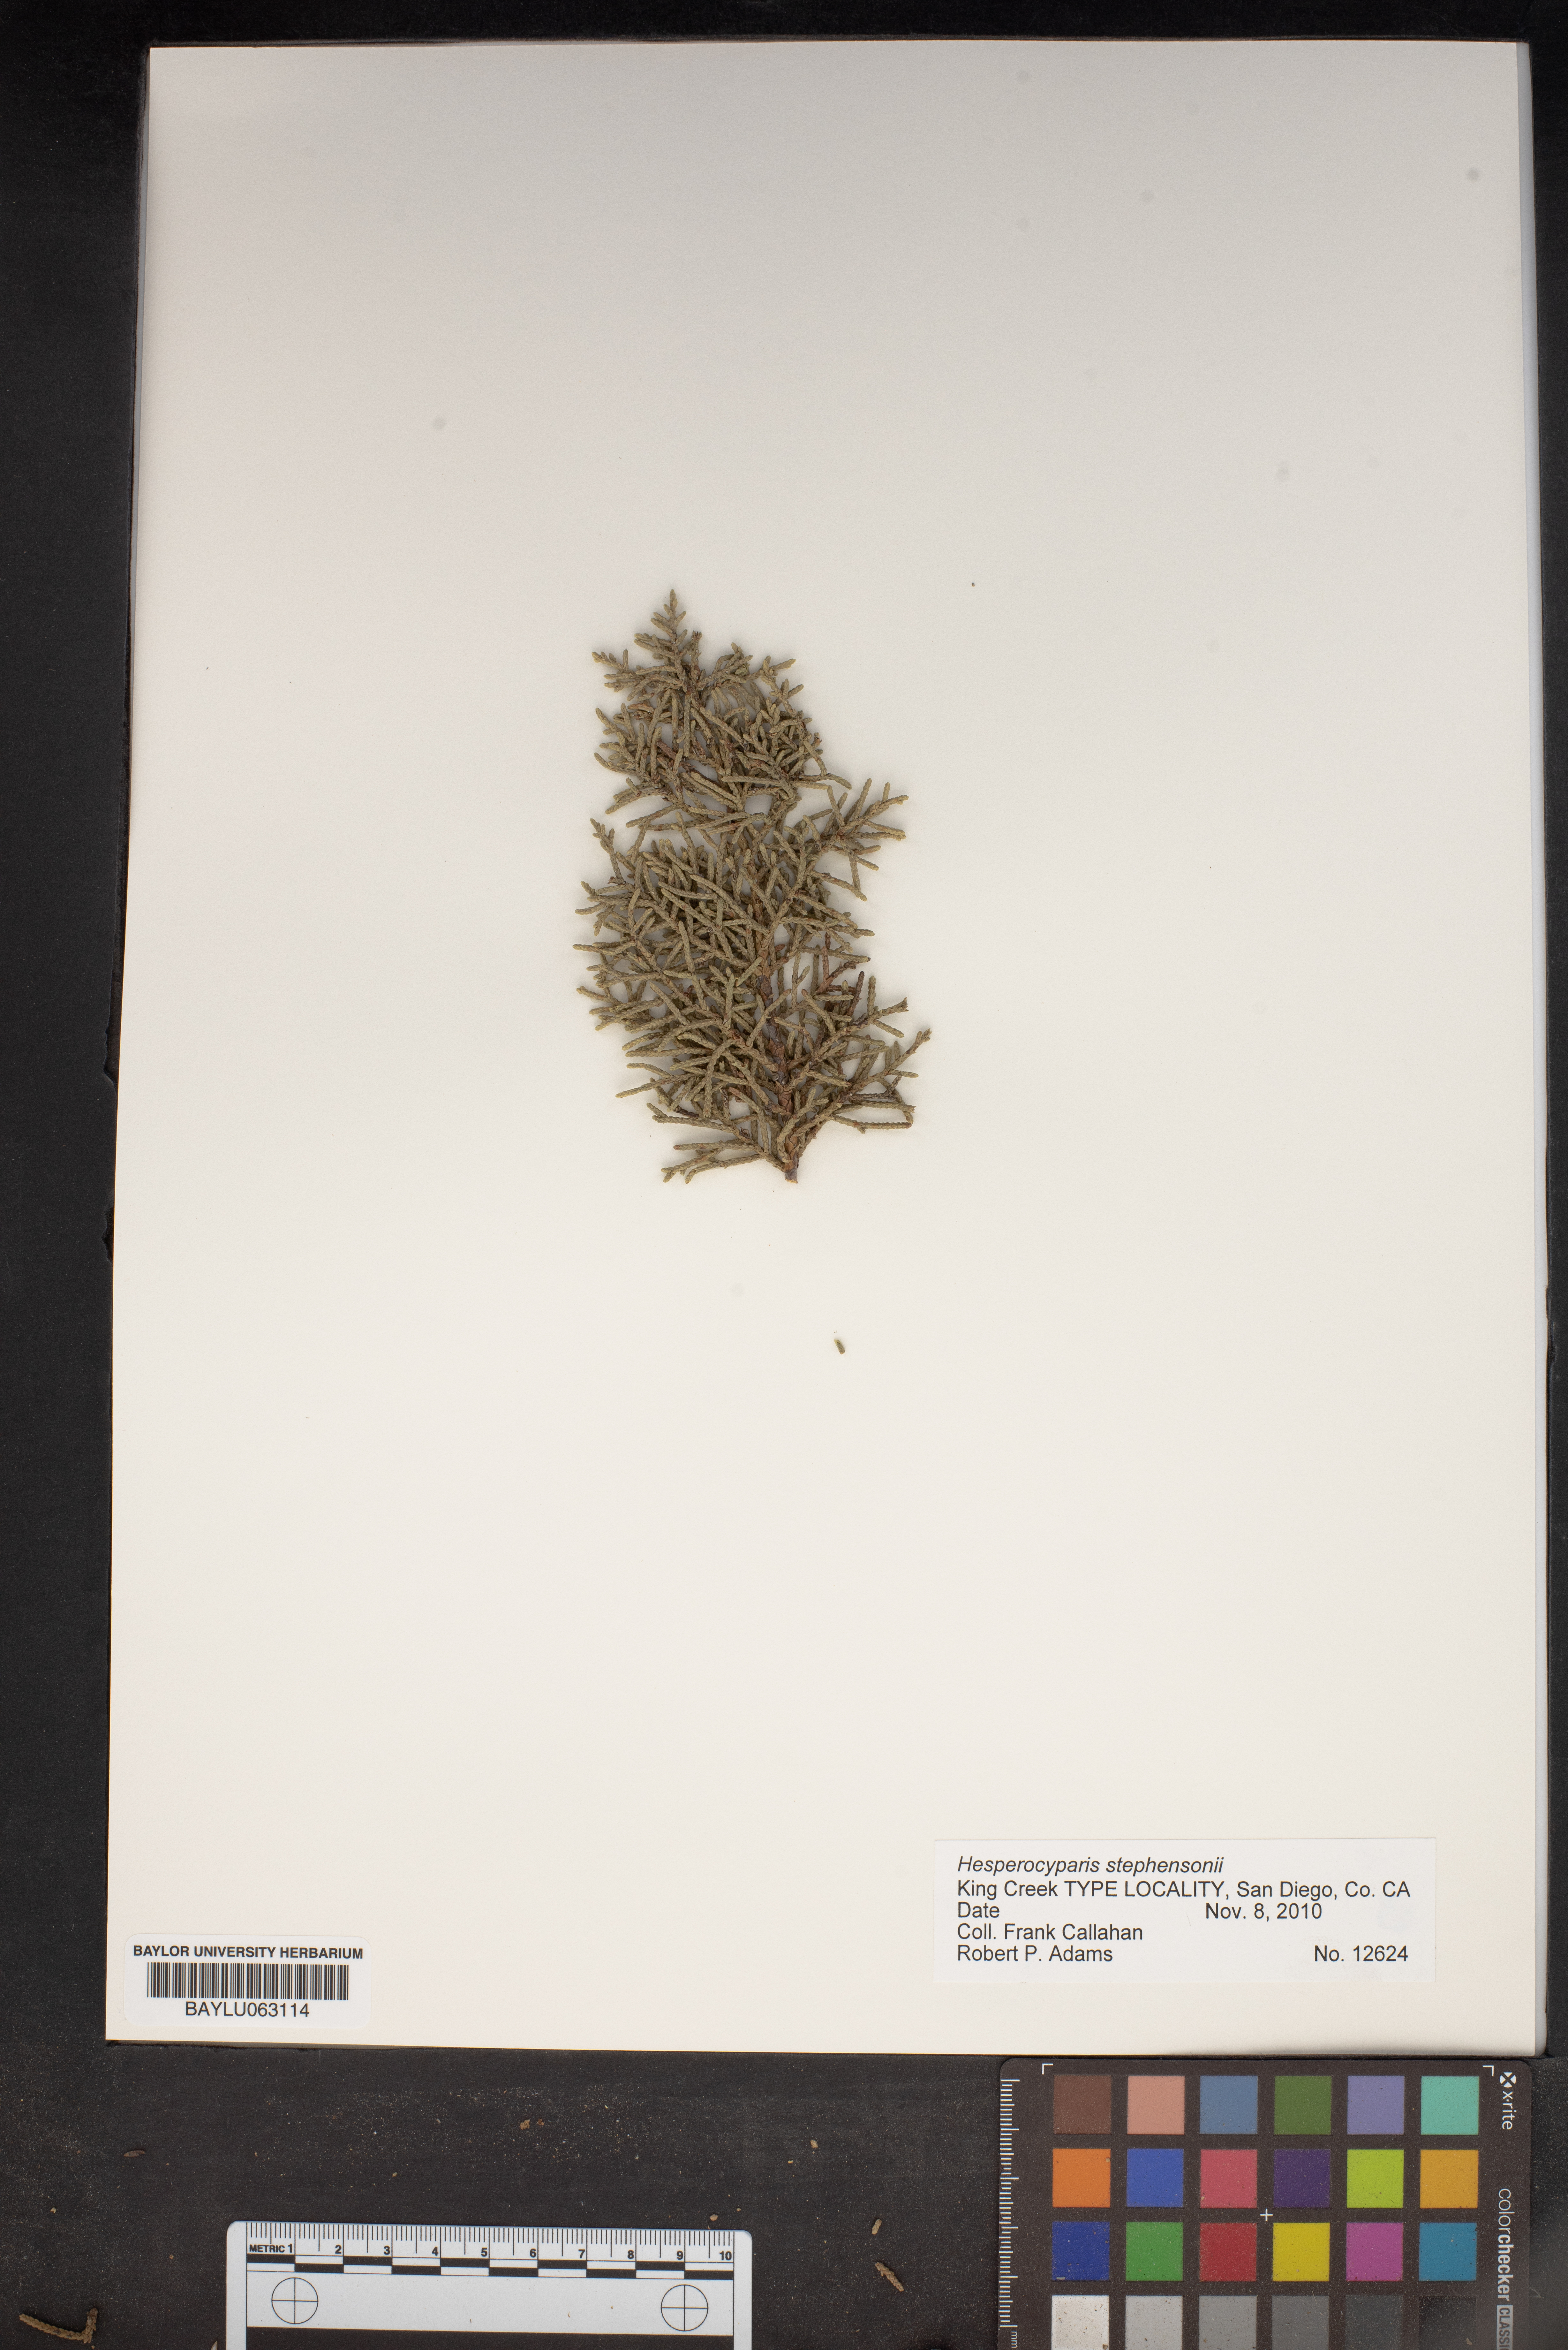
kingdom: Plantae
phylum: Tracheophyta
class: Pinopsida
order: Pinales
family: Cupressaceae
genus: Cupressus
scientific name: Cupressus arizonica
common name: Arizona cypress
